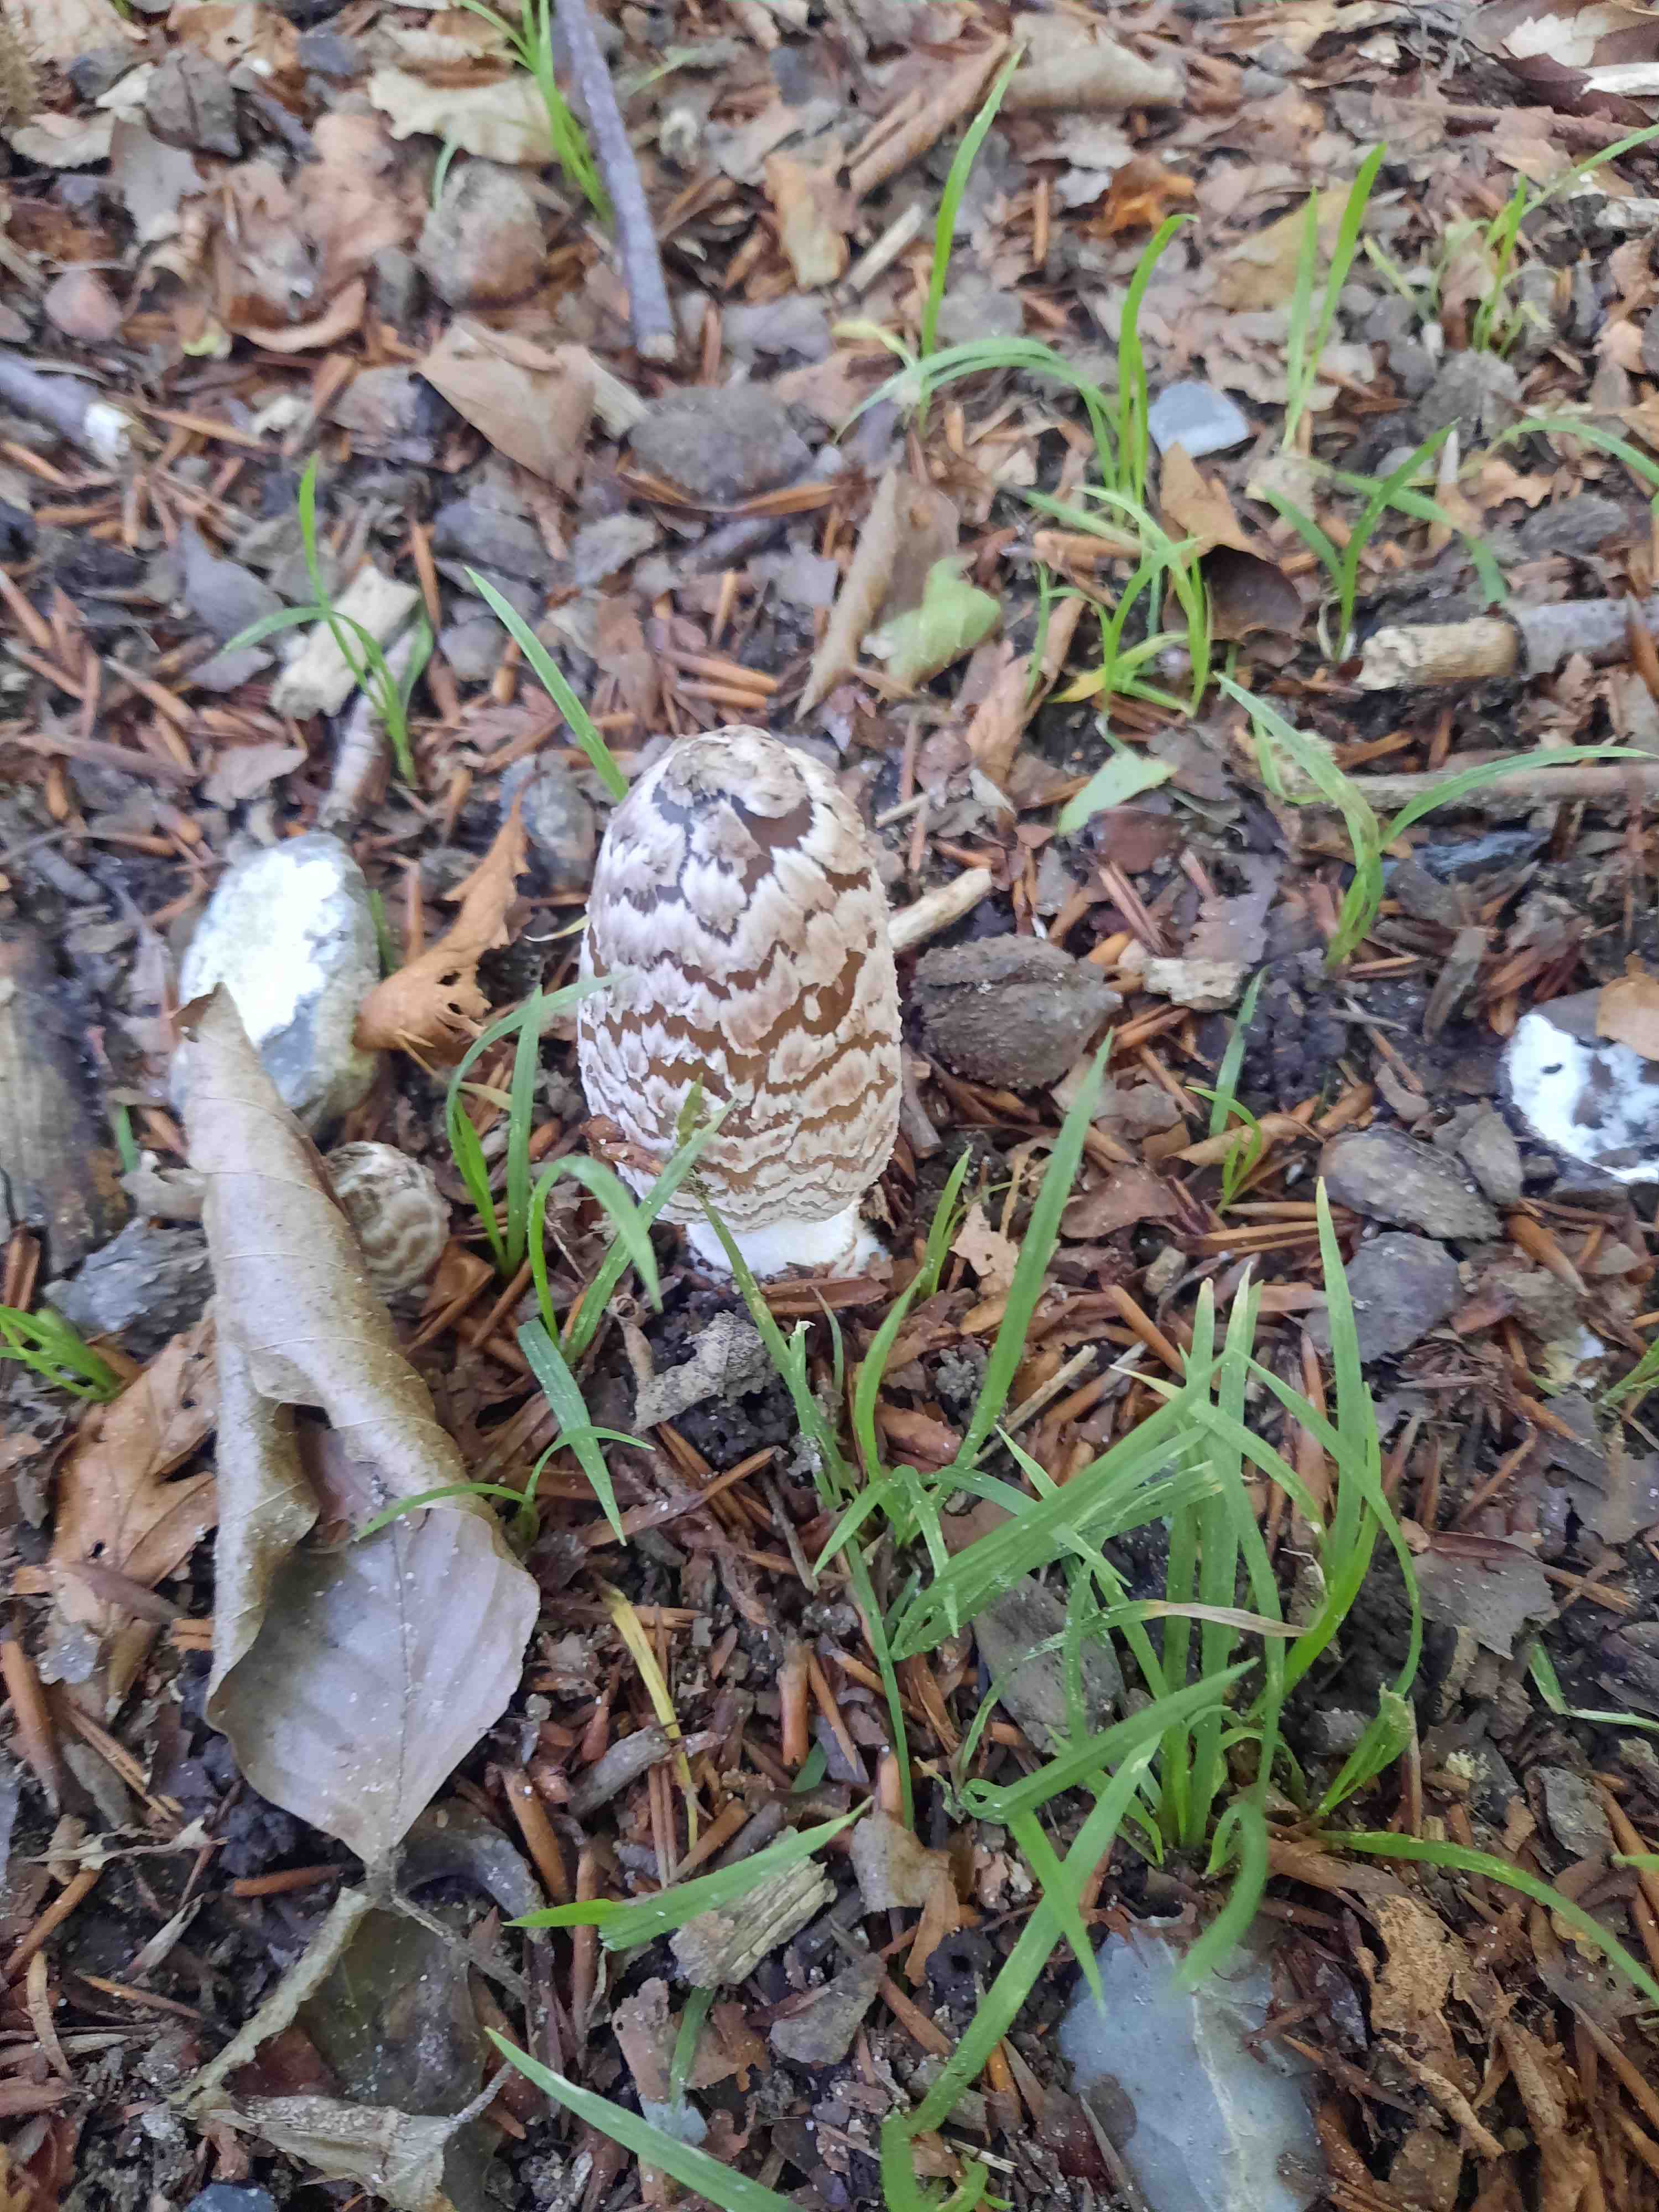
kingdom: Fungi
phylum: Basidiomycota
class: Agaricomycetes
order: Agaricales
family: Psathyrellaceae
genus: Coprinopsis
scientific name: Coprinopsis picacea
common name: skade-blækhat
